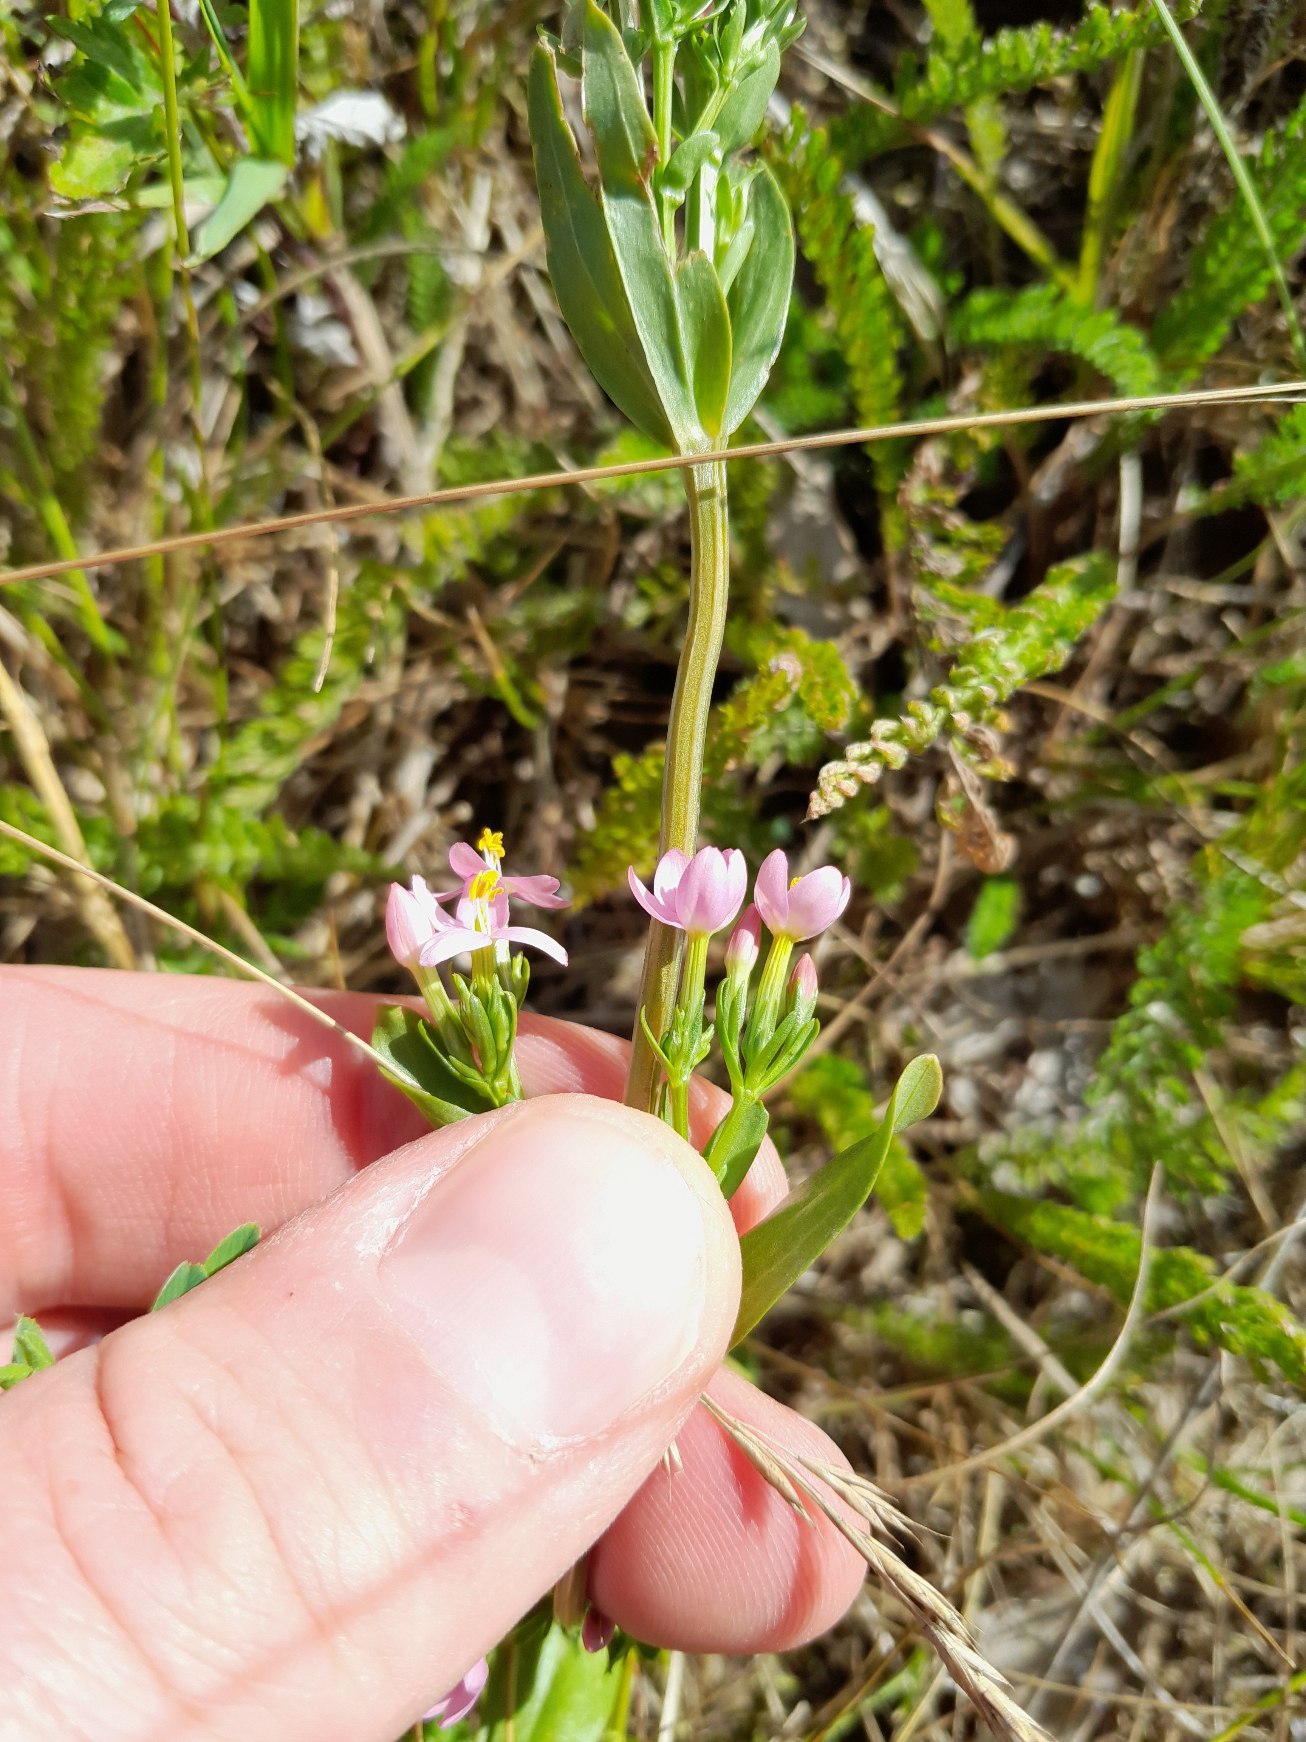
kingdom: Plantae
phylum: Tracheophyta
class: Magnoliopsida
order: Gentianales
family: Gentianaceae
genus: Centaurium
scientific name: Centaurium erythraea
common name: Mark-tusindgylden
